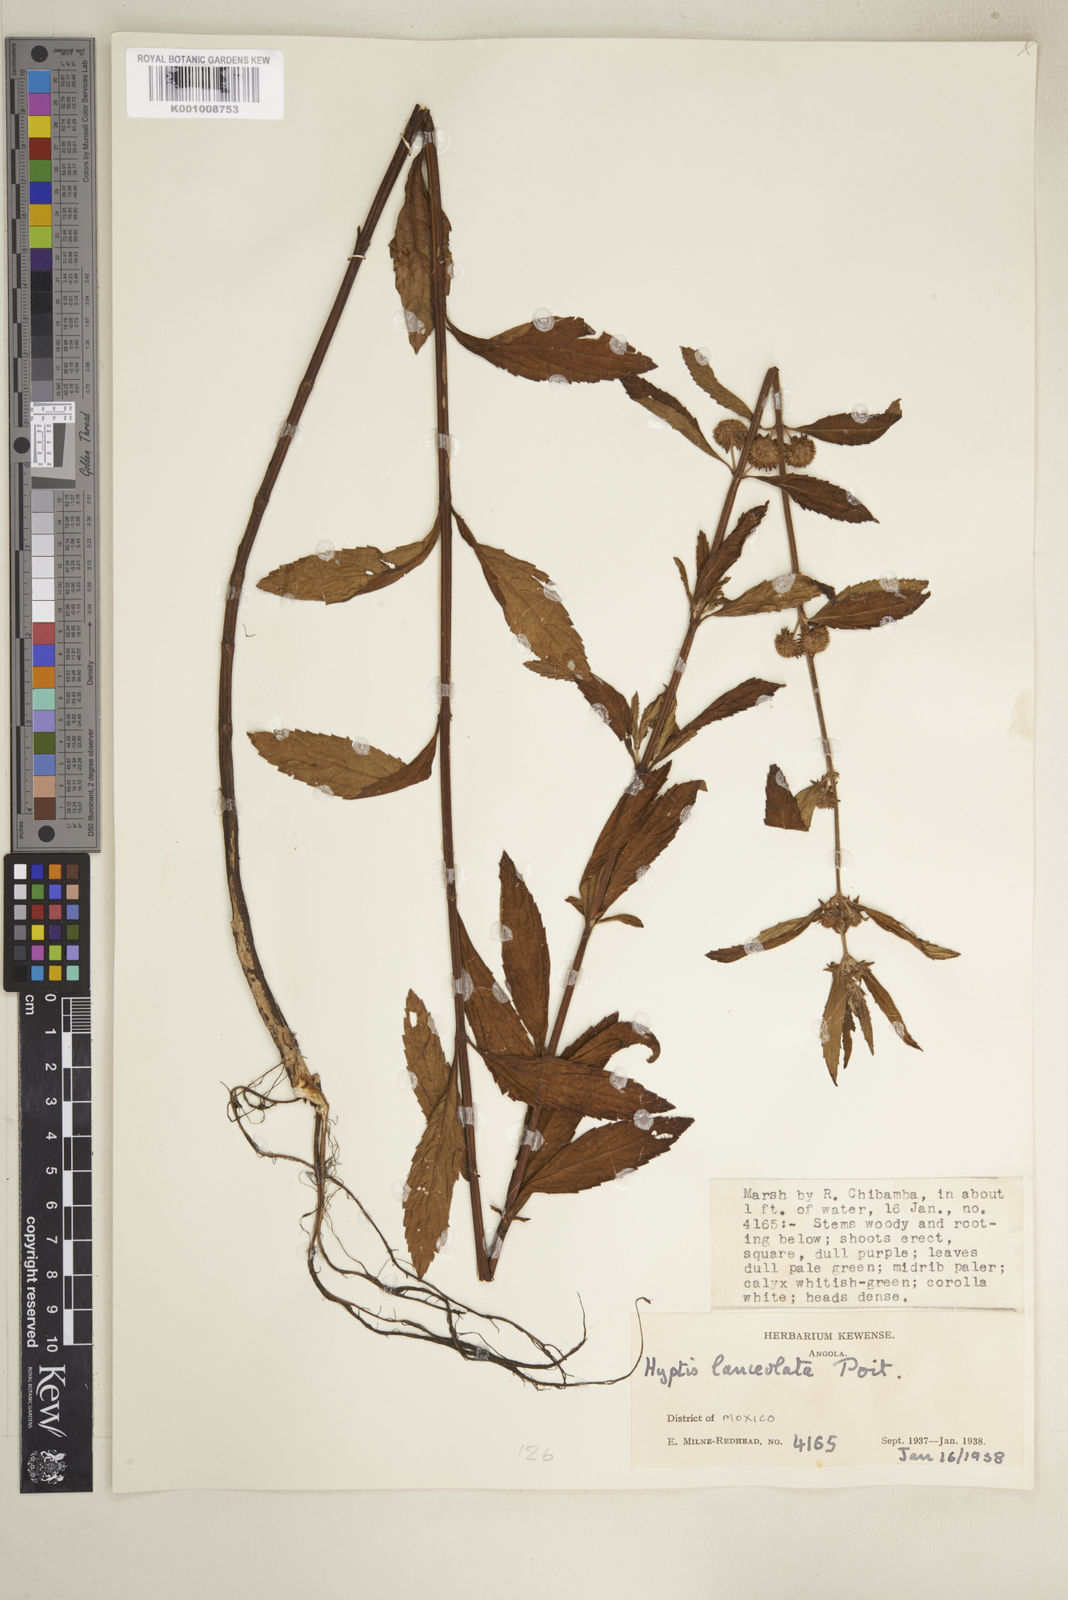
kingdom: Plantae
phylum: Tracheophyta
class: Magnoliopsida
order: Lamiales
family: Lamiaceae
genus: Hyptis
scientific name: Hyptis lanceolata
